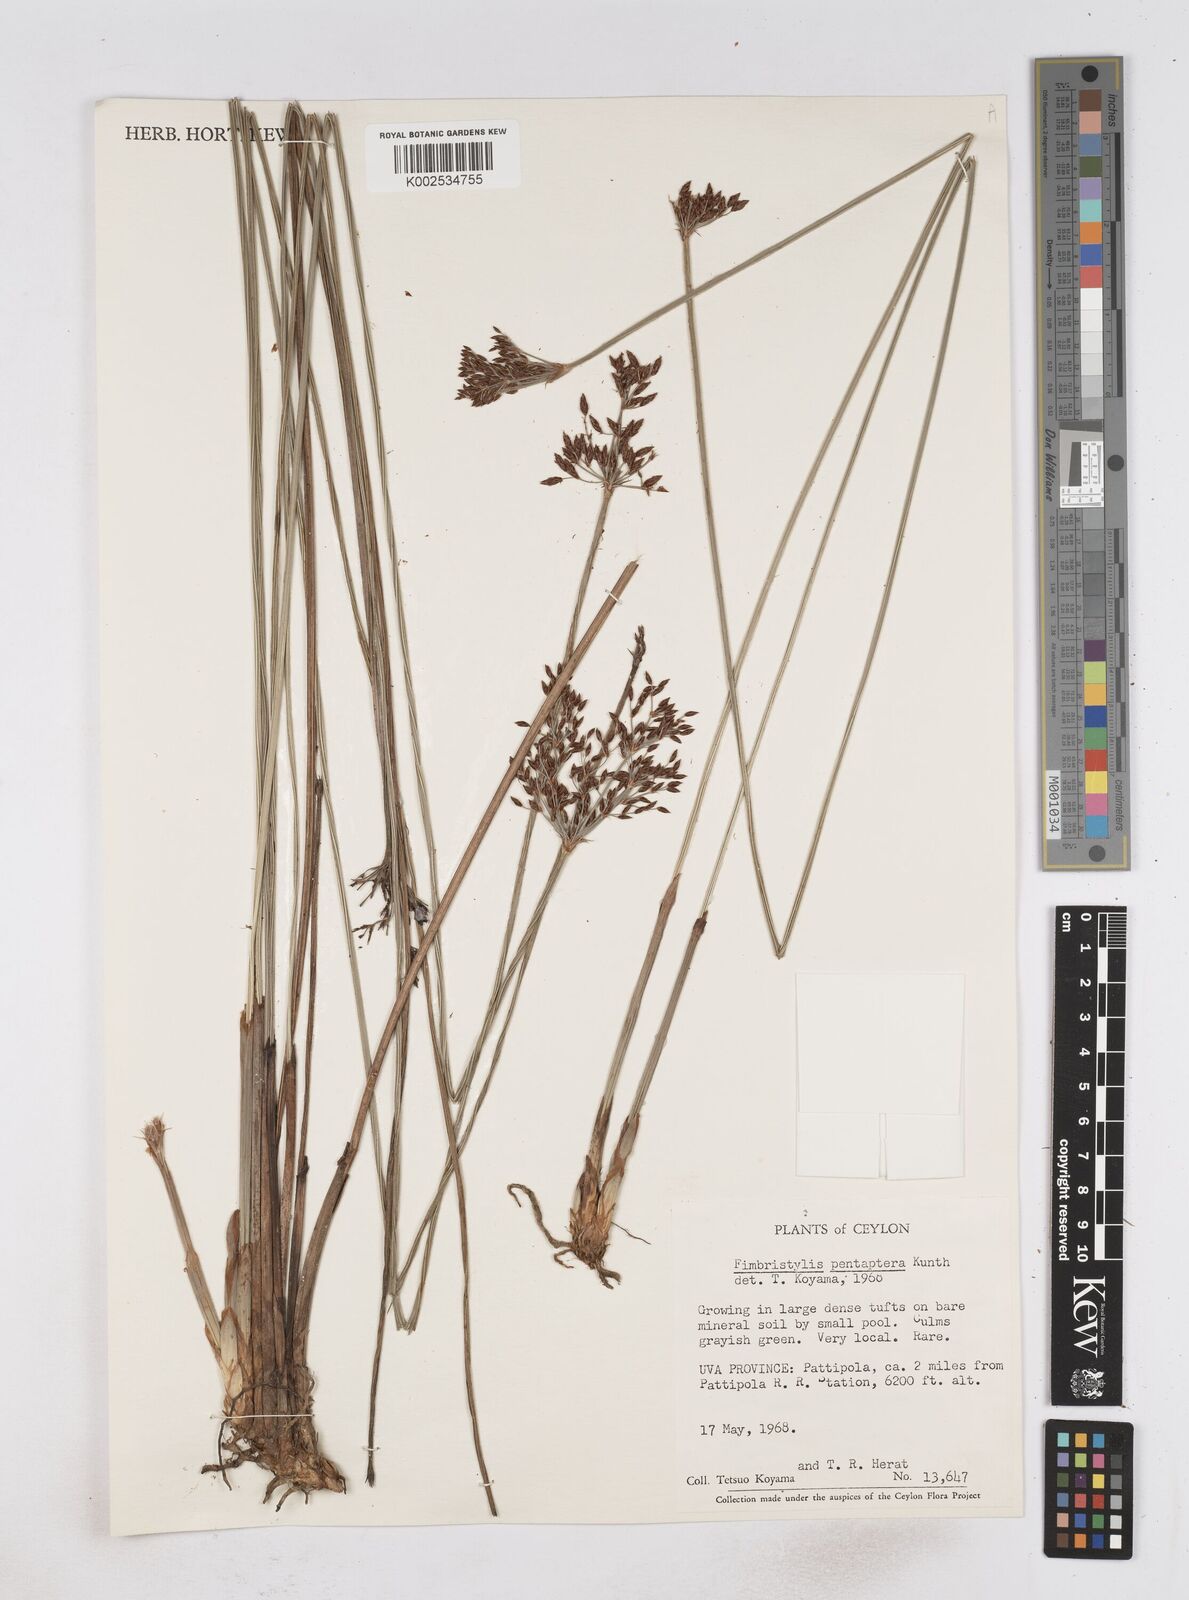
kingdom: Plantae
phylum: Tracheophyta
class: Liliopsida
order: Poales
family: Cyperaceae
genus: Fimbristylis
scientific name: Fimbristylis salbundia
